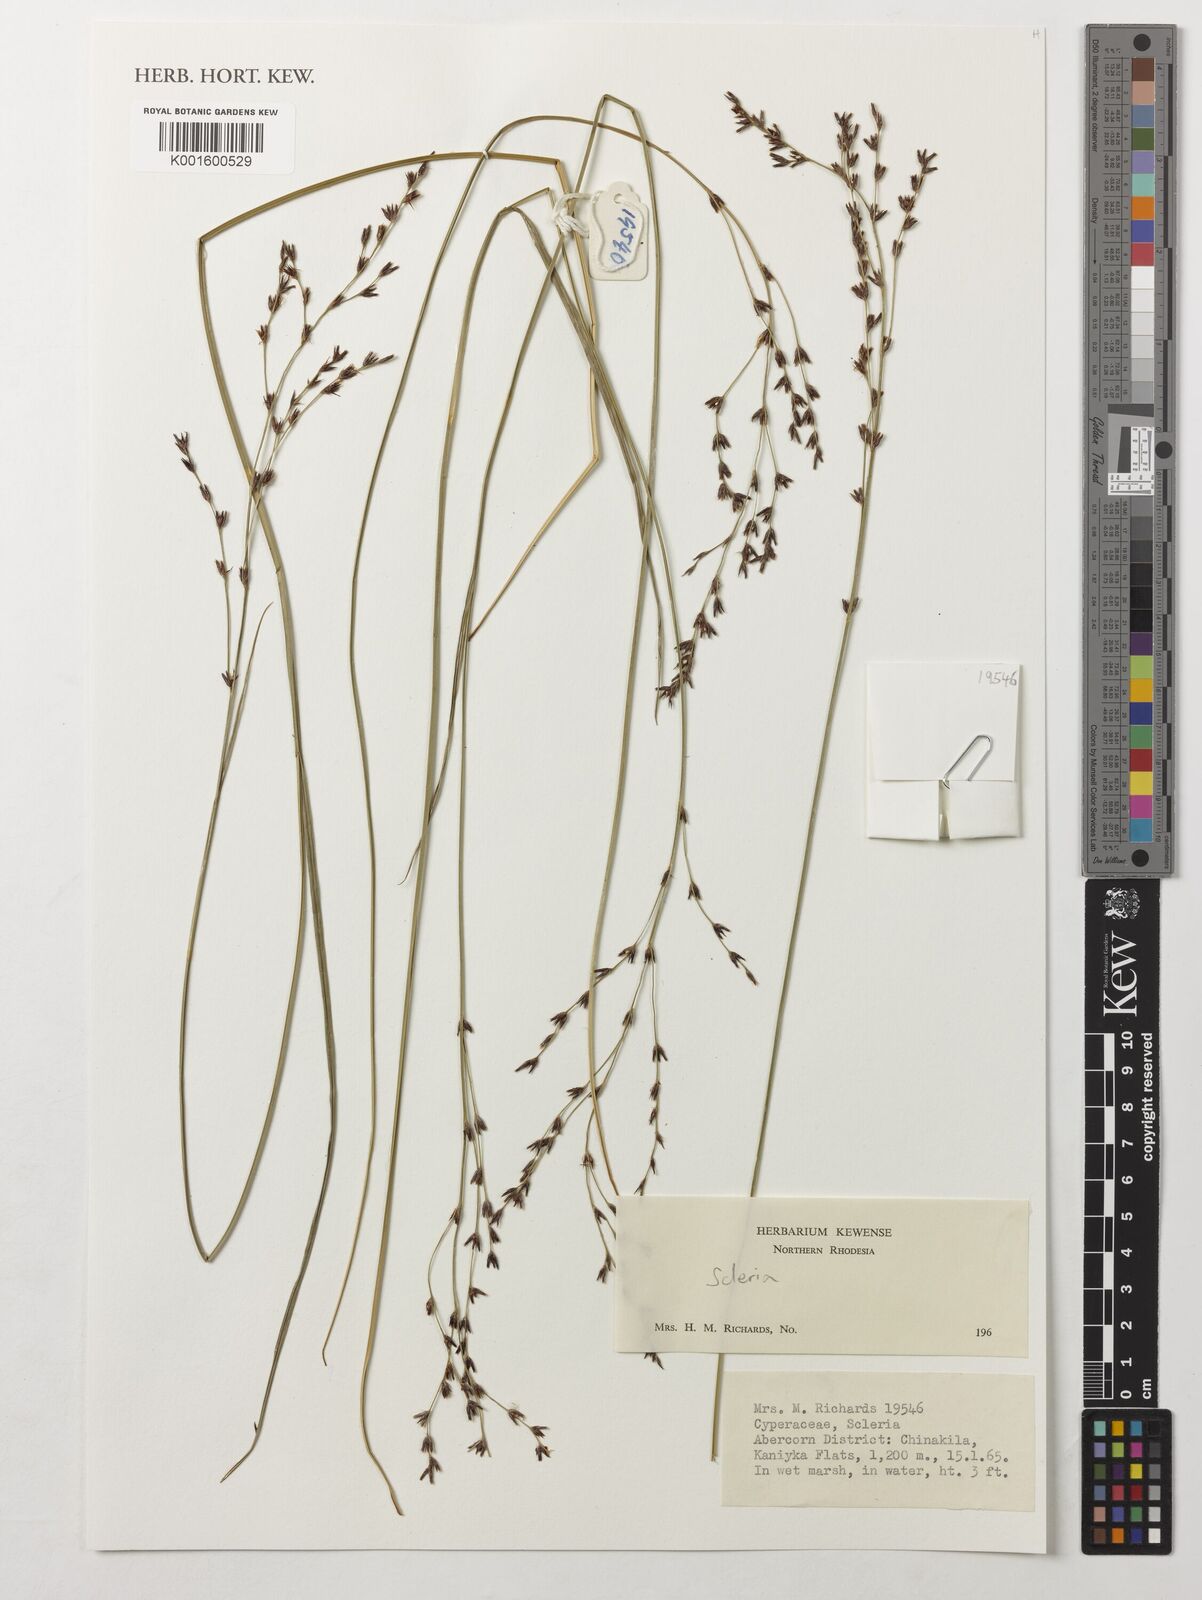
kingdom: Plantae
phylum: Tracheophyta
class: Liliopsida
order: Poales
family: Cyperaceae
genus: Scleria
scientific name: Scleria
